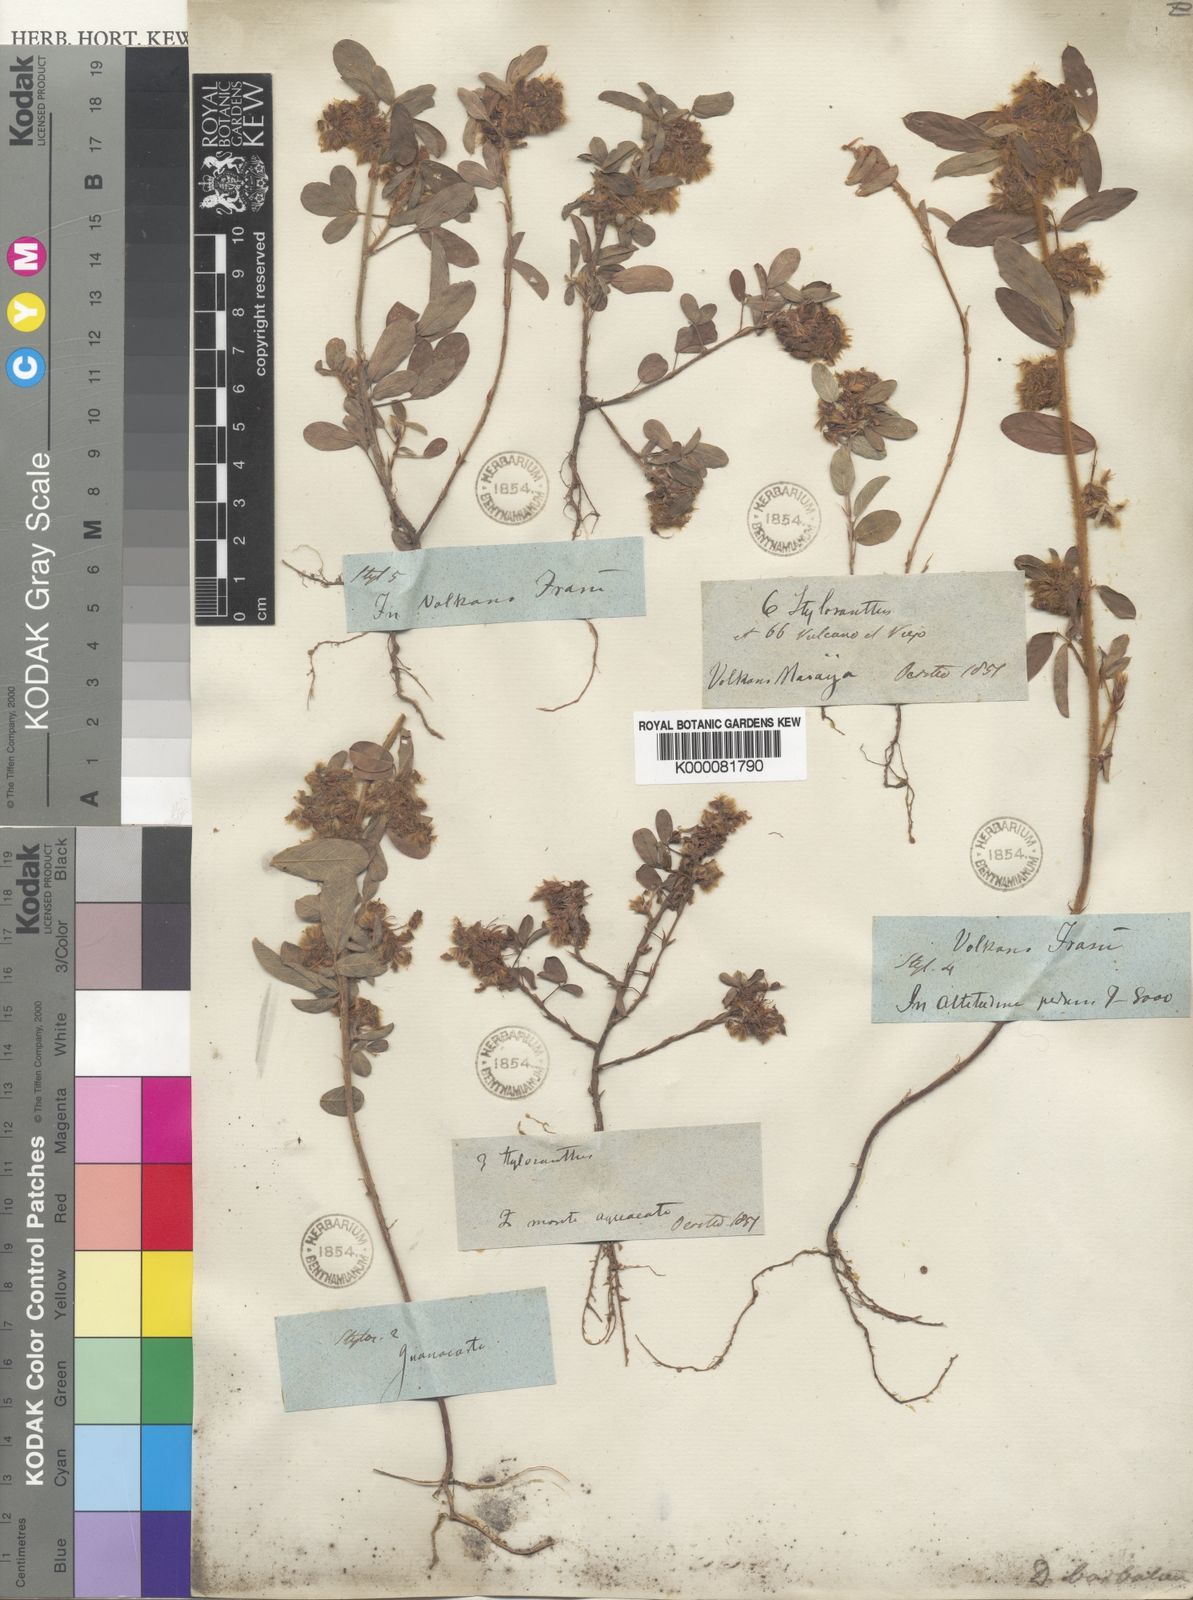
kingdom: Plantae
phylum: Tracheophyta
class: Magnoliopsida
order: Fabales
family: Fabaceae
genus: Grona
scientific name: Grona barbata
